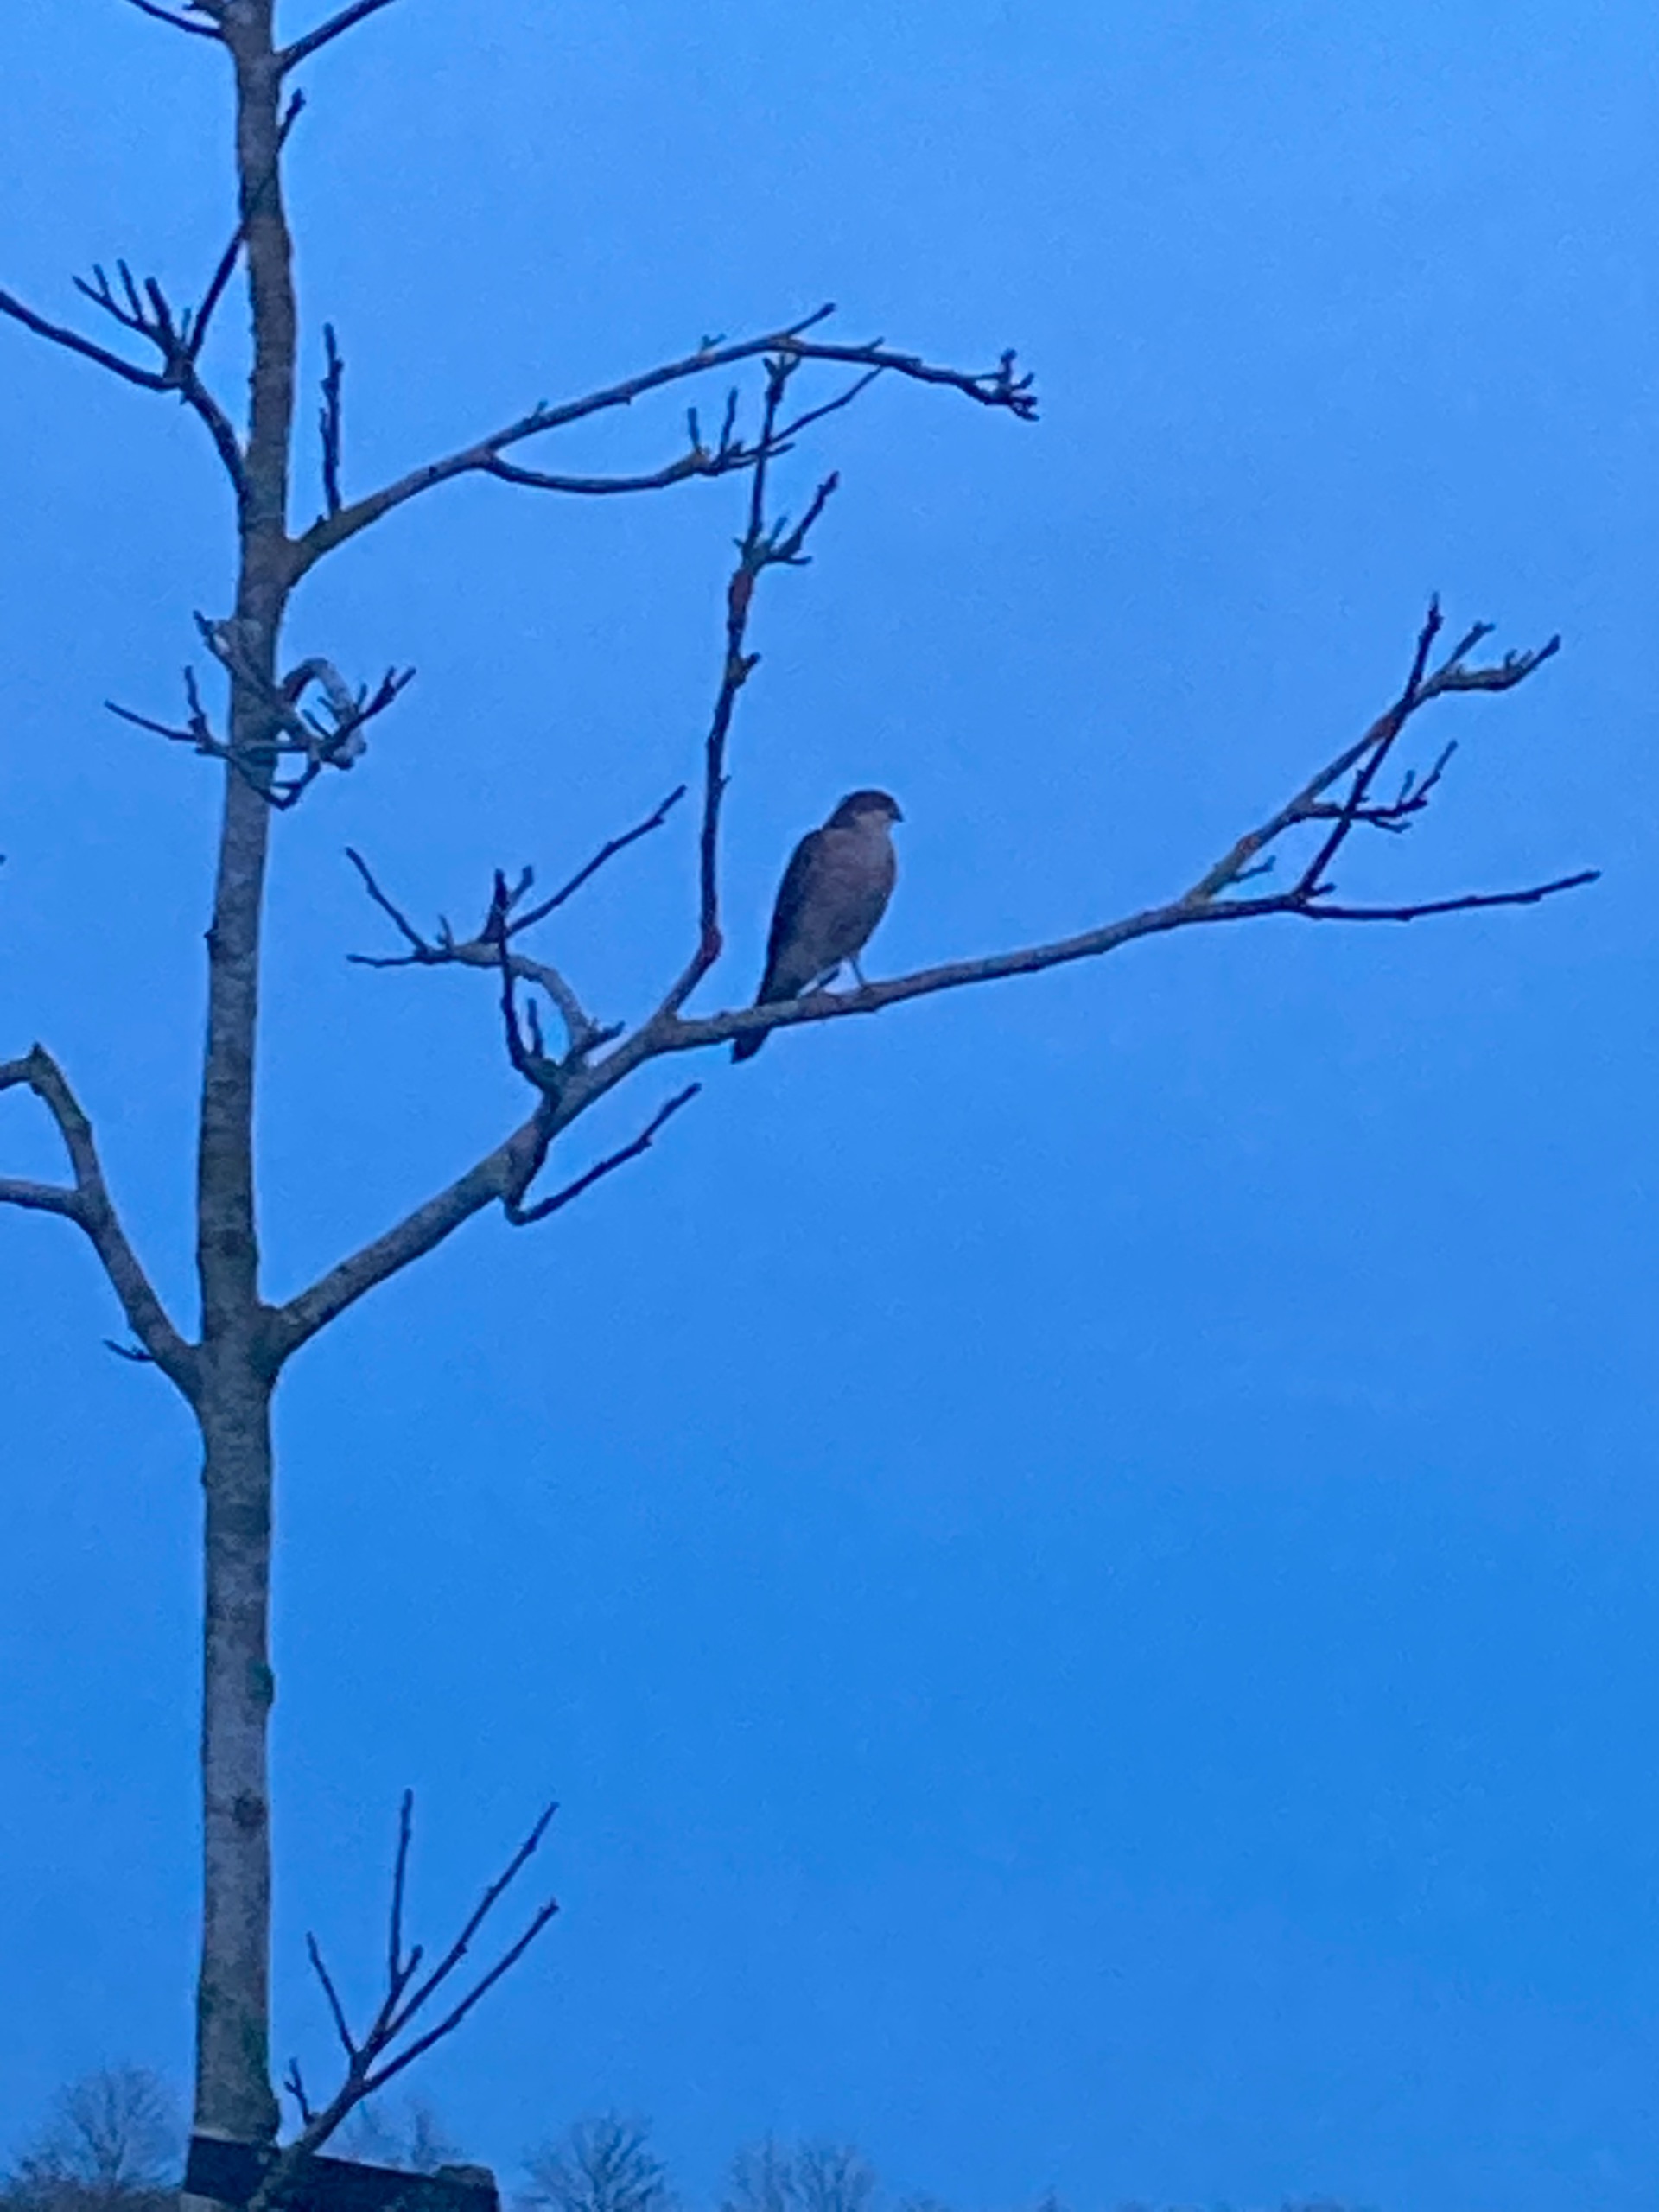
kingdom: Animalia
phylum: Chordata
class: Aves
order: Falconiformes
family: Falconidae
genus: Falco
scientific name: Falco tinnunculus
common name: Tårnfalk
